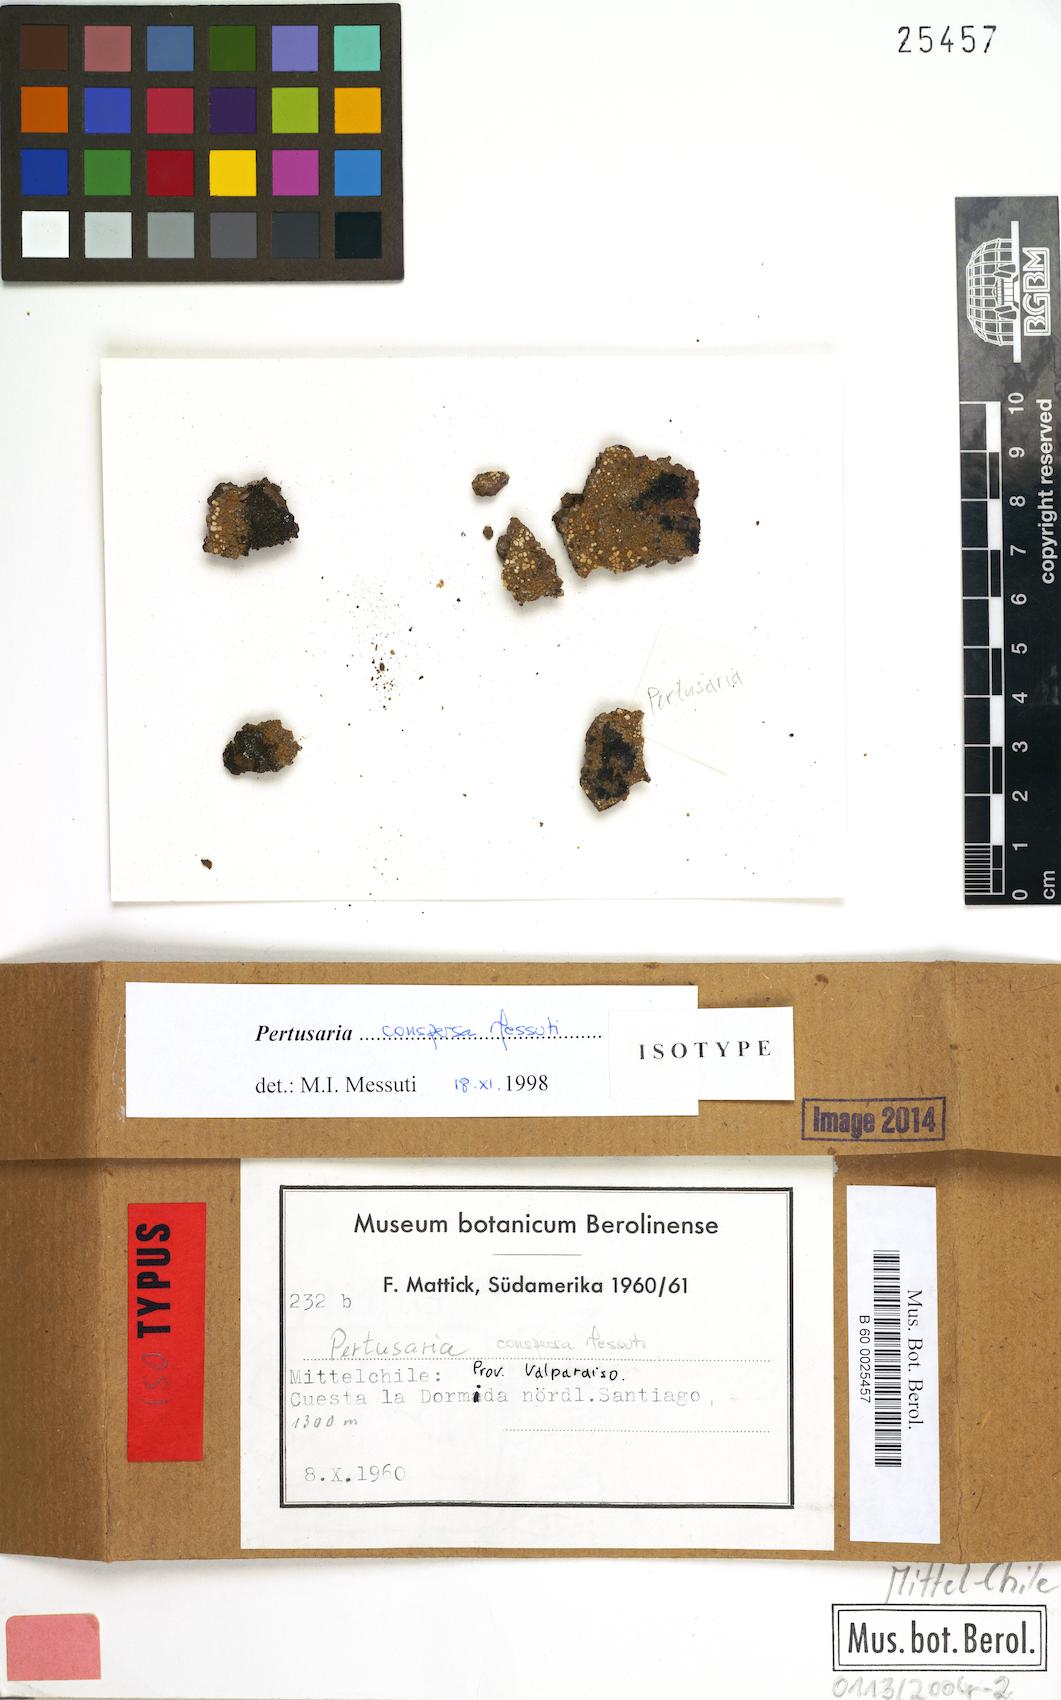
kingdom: Fungi
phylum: Ascomycota
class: Lecanoromycetes
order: Pertusariales
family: Pertusariaceae
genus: Pertusaria
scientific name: Pertusaria conspersa
